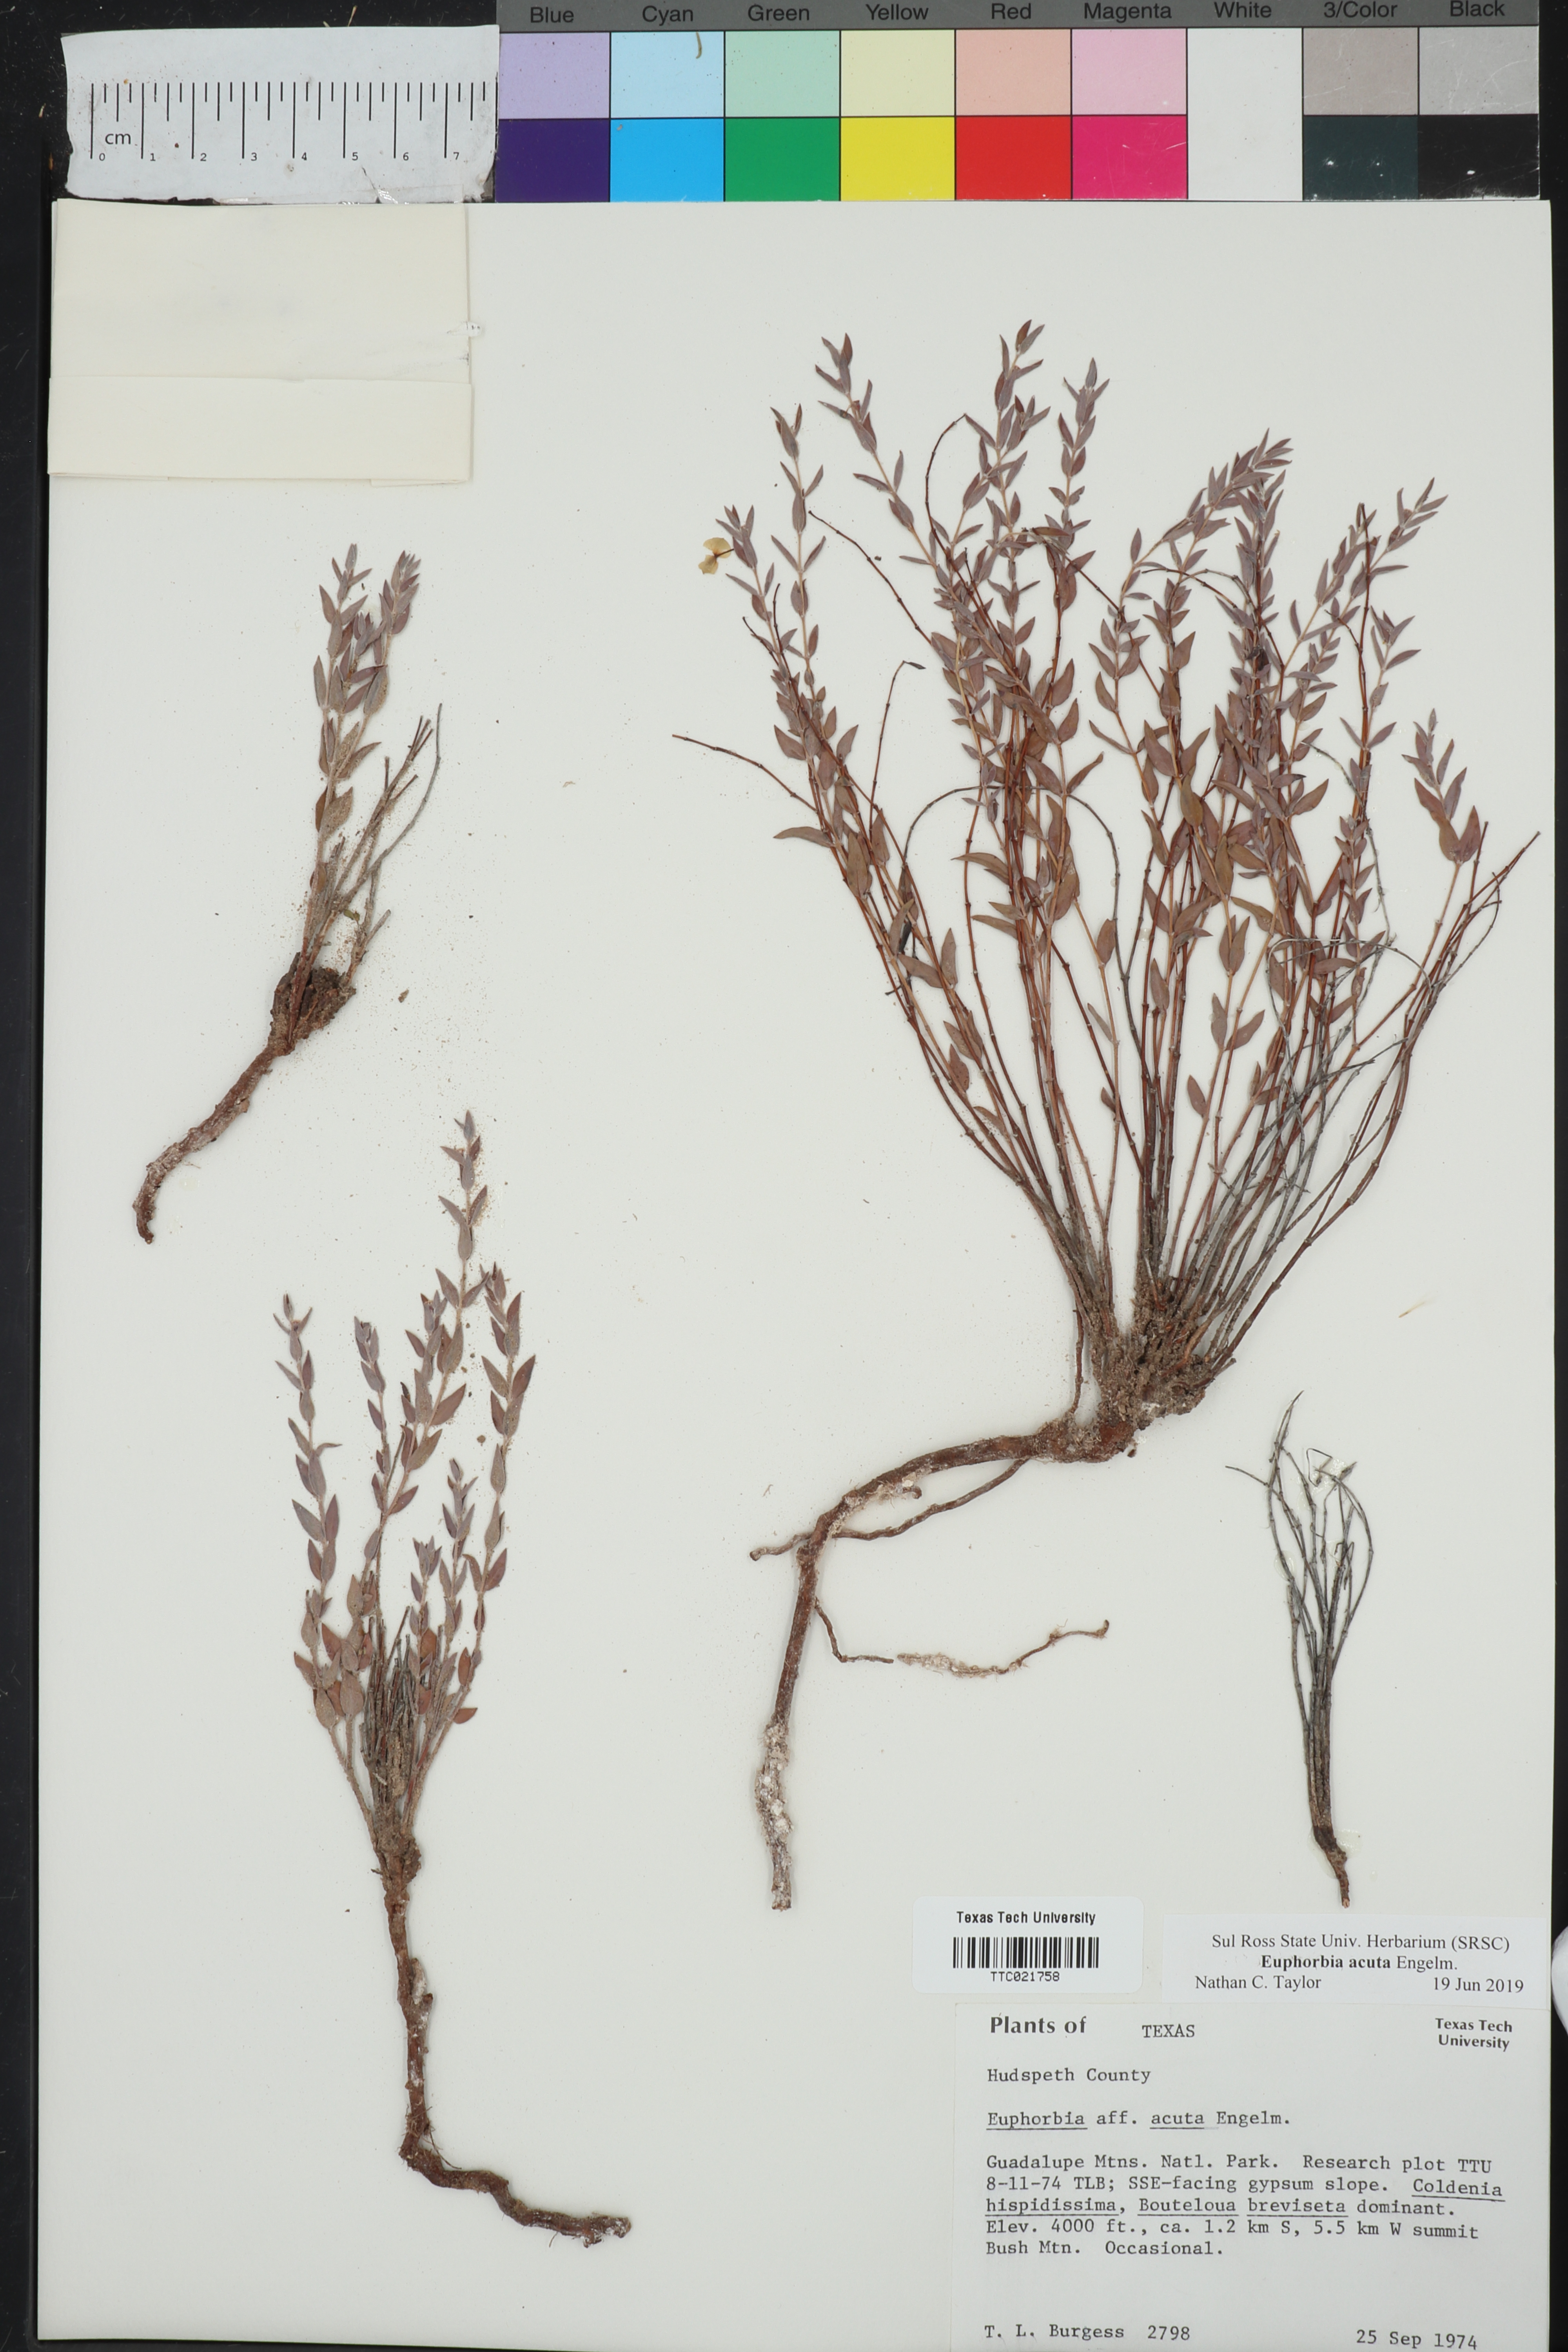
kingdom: Plantae
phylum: Tracheophyta
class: Magnoliopsida
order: Malpighiales
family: Euphorbiaceae
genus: Euphorbia
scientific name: Euphorbia acuta
